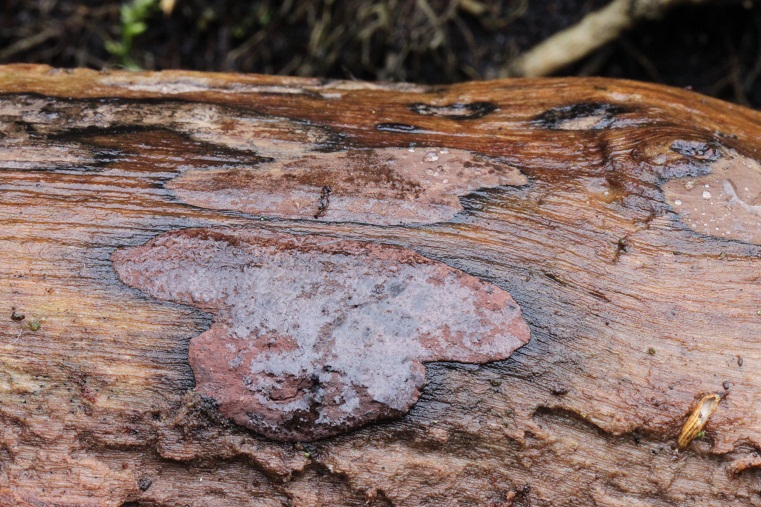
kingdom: Fungi
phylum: Ascomycota
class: Sordariomycetes
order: Xylariales
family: Hypoxylaceae
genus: Hypoxylon
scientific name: Hypoxylon petriniae
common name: nedsænket kulbær
